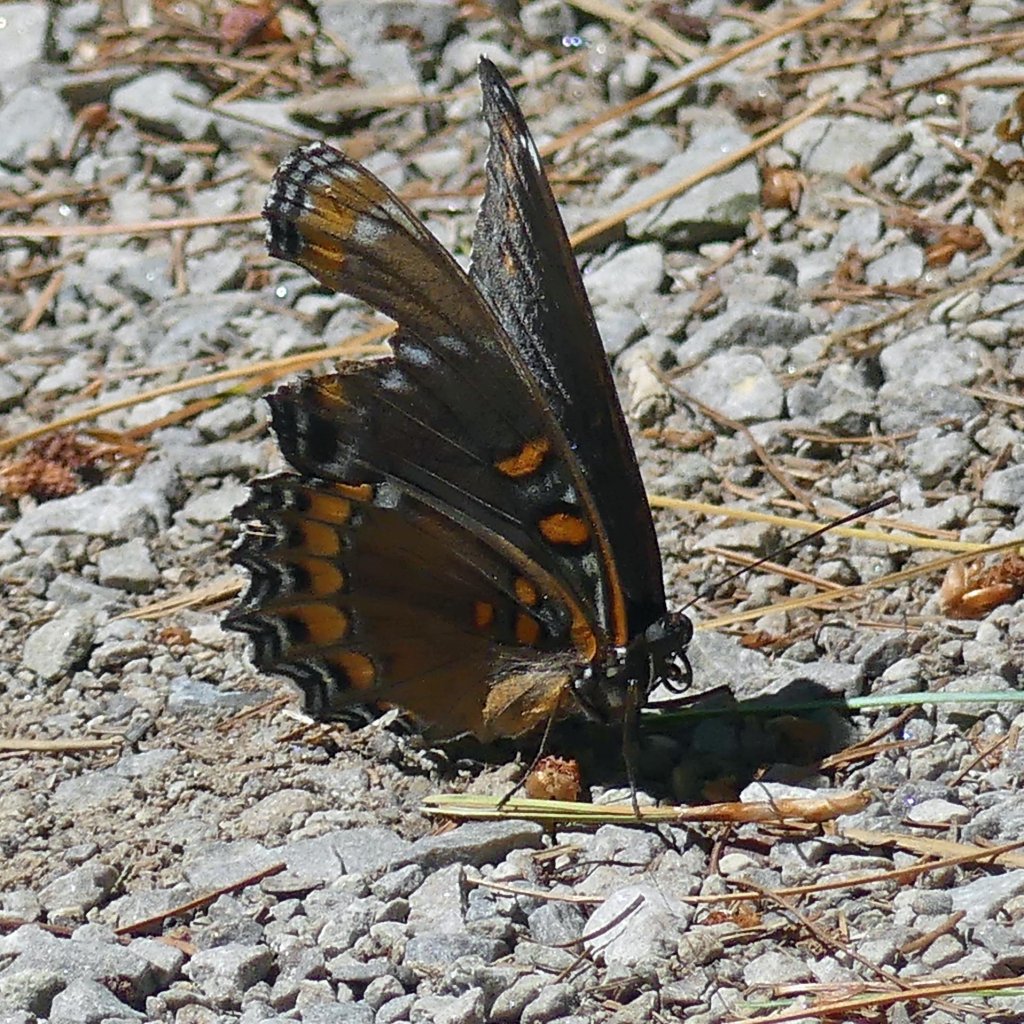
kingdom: Animalia
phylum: Arthropoda
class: Insecta
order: Lepidoptera
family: Nymphalidae
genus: Limenitis
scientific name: Limenitis astyanax
